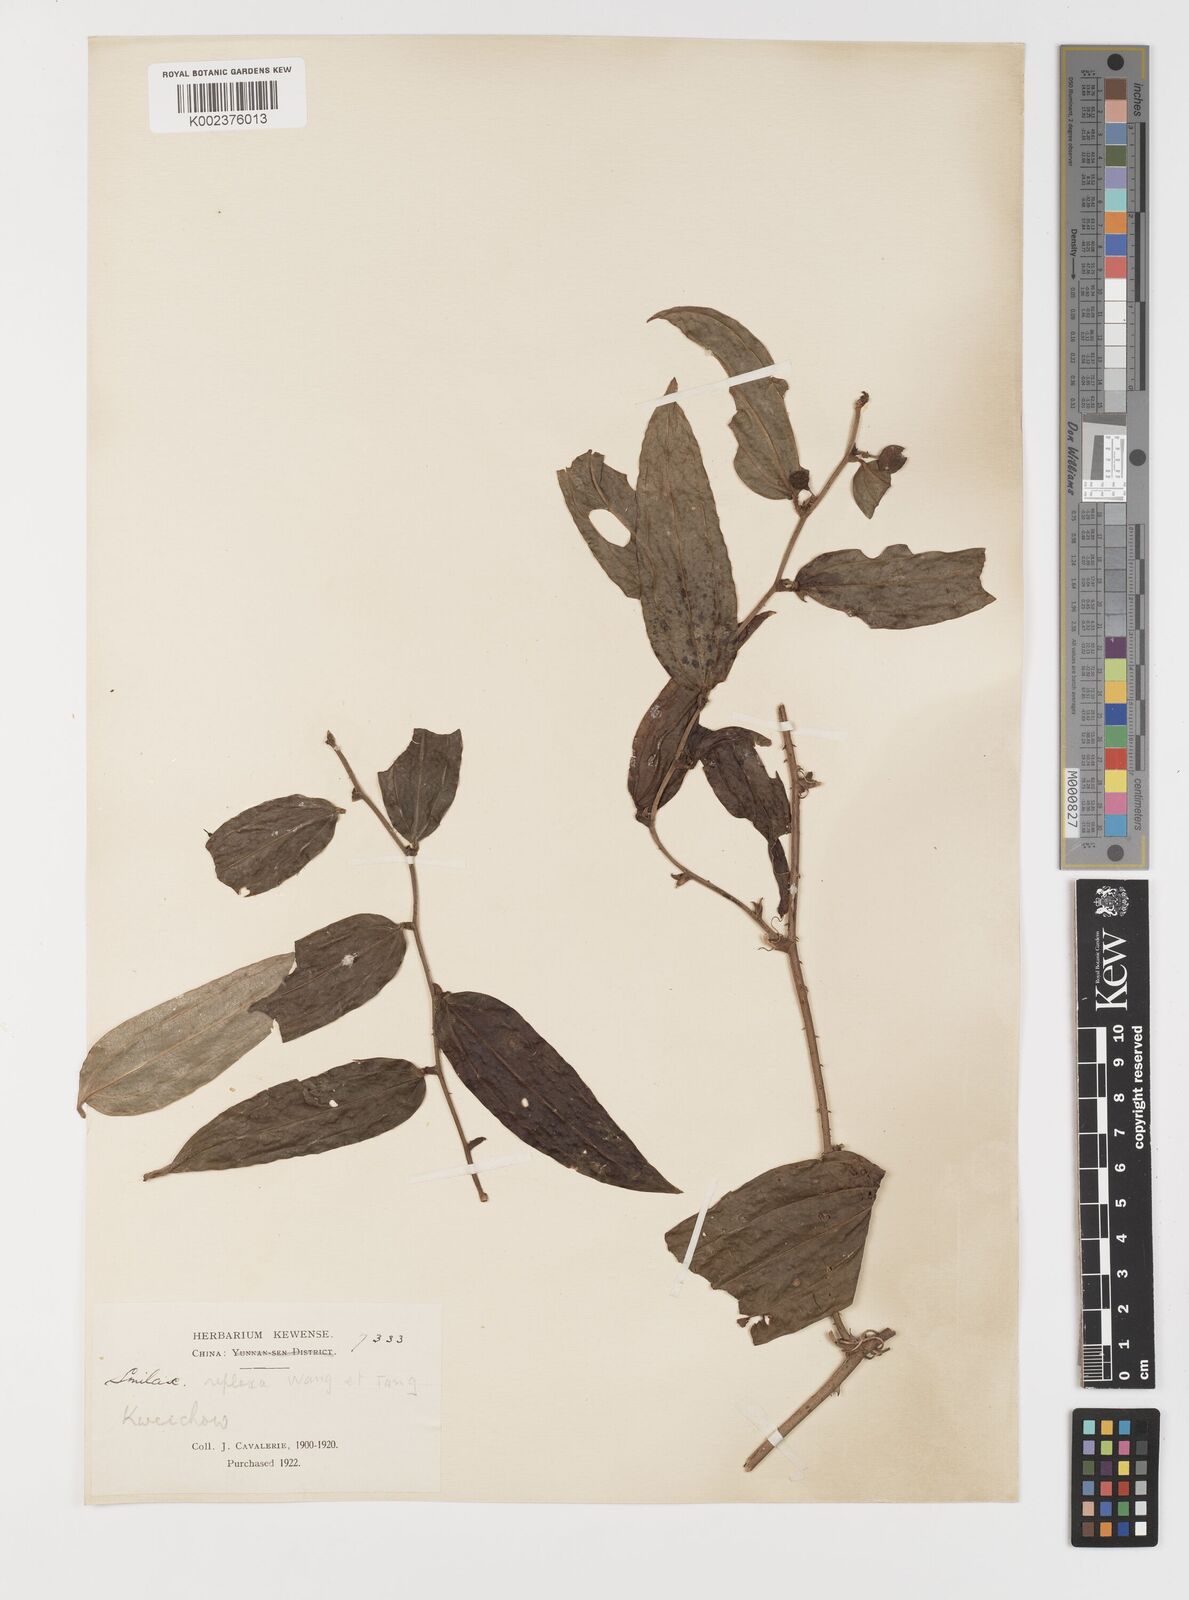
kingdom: Plantae
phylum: Tracheophyta
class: Liliopsida
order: Liliales
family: Smilacaceae
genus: Smilax
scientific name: Smilax chapaensis
